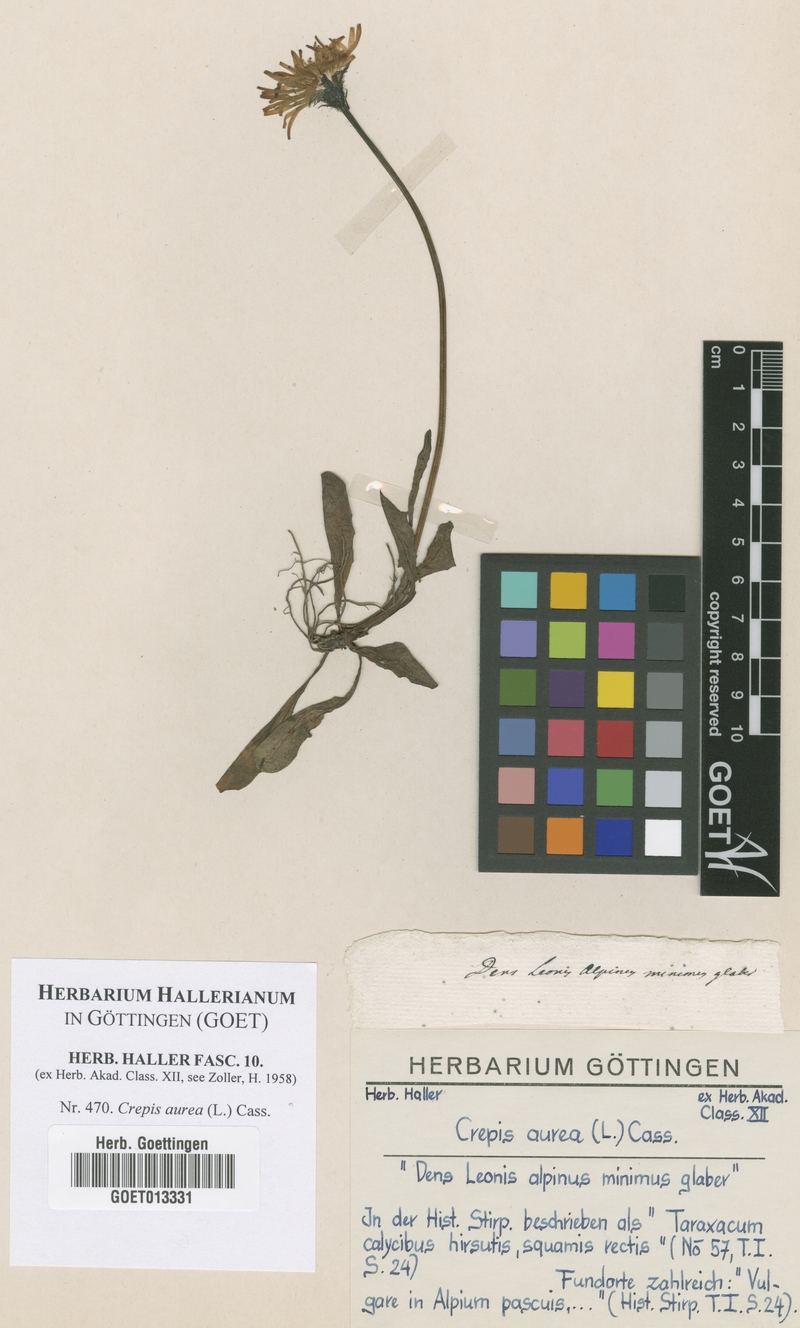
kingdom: Plantae
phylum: Tracheophyta
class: Magnoliopsida
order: Asterales
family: Asteraceae
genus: Crepis
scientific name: Crepis aurea
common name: Golden hawk's-beard
